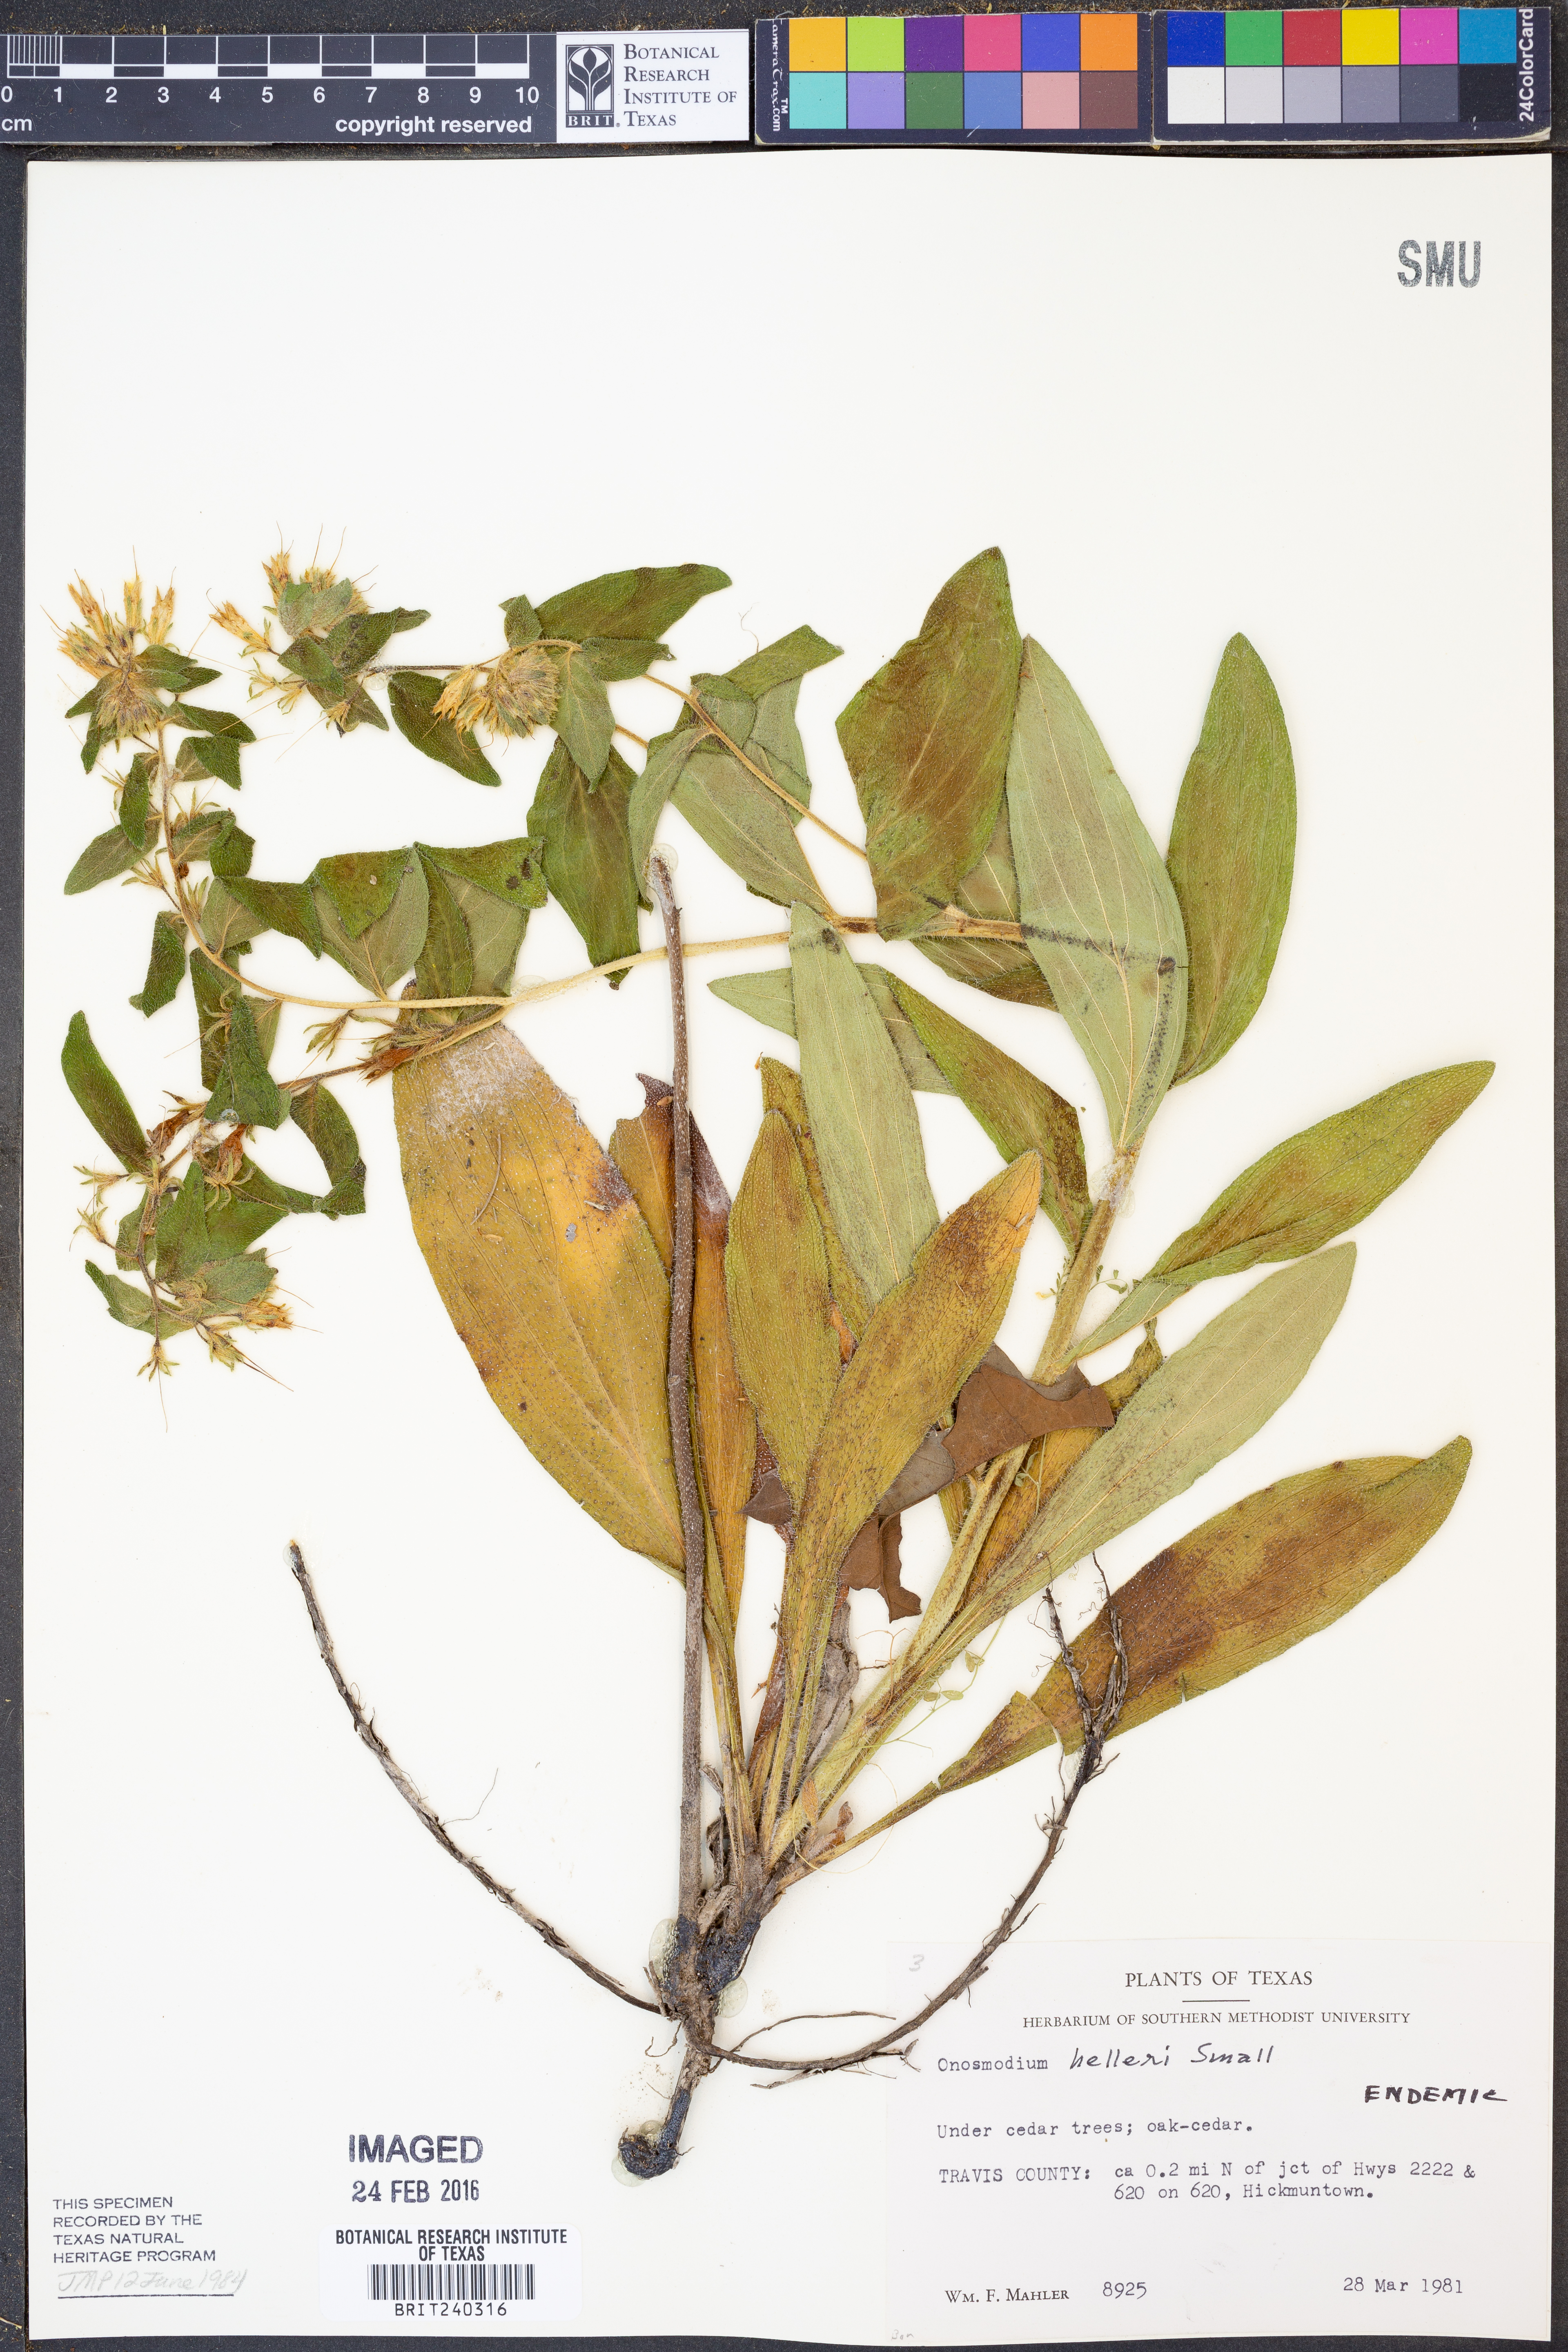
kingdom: Plantae
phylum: Tracheophyta
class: Magnoliopsida
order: Boraginales
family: Boraginaceae
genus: Lithospermum
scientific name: Lithospermum helleri
